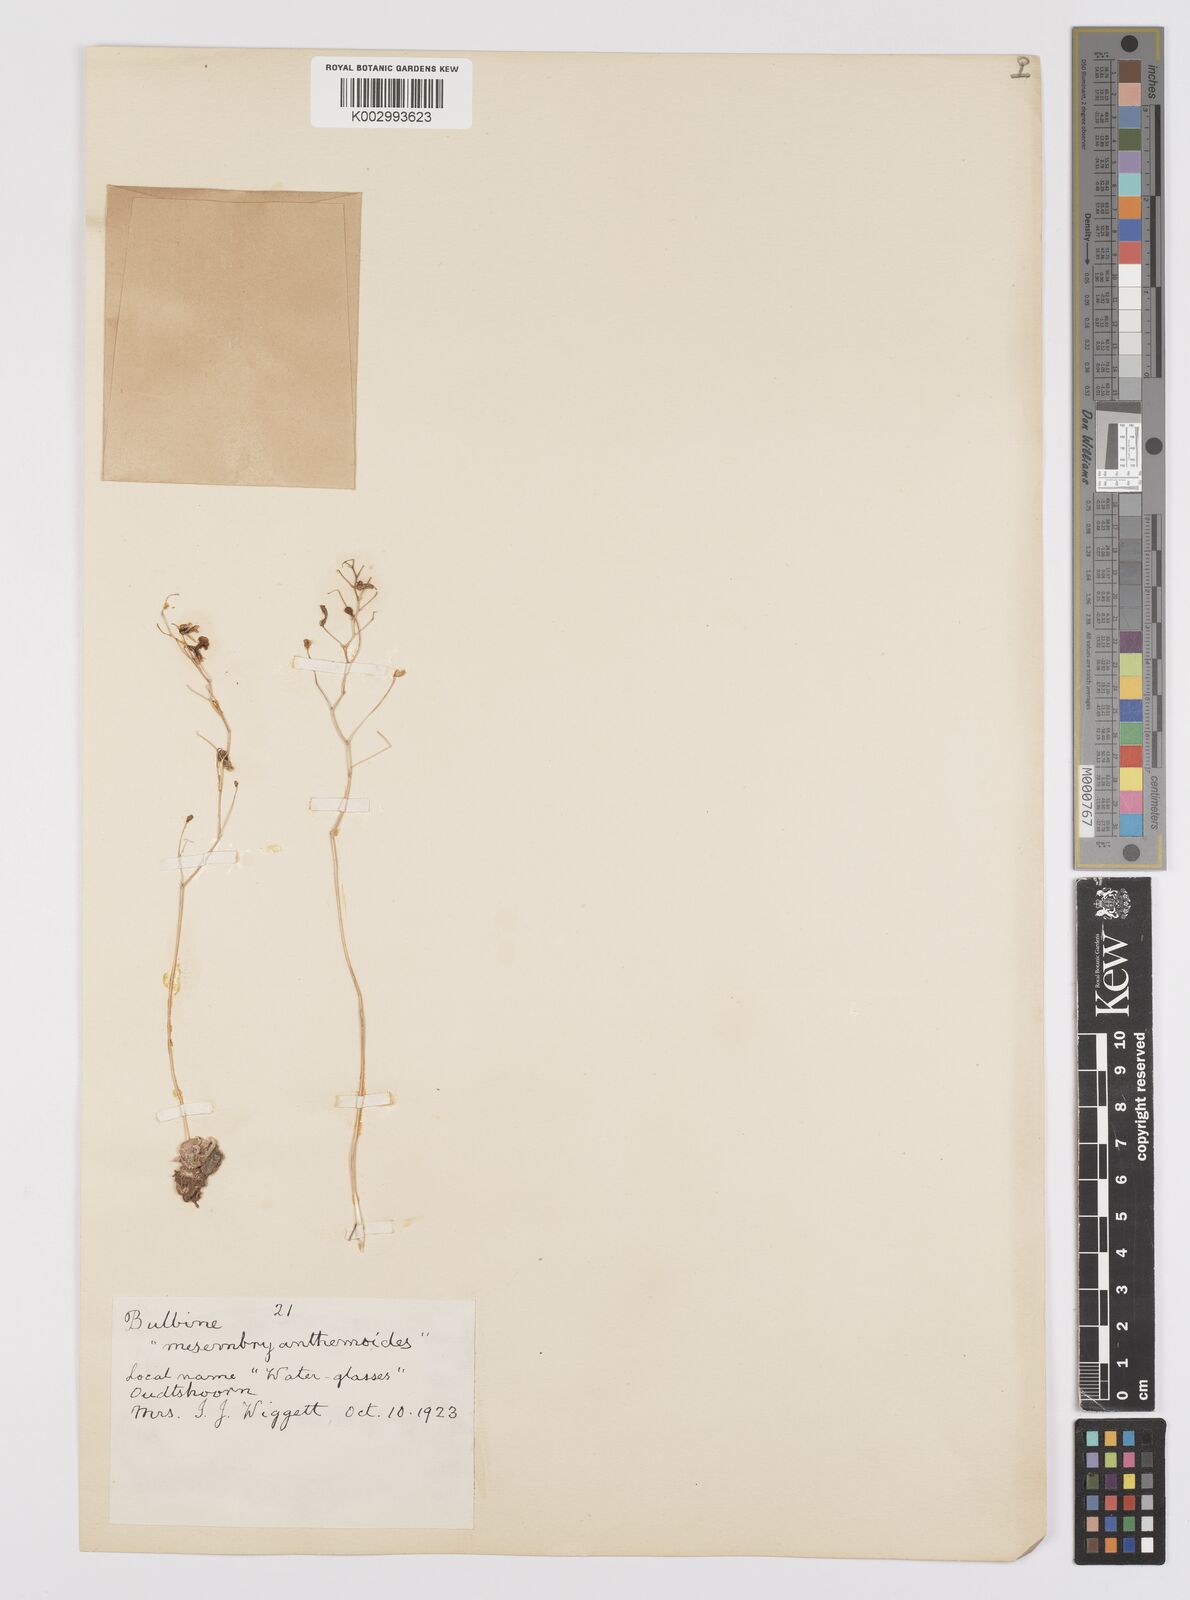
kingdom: Plantae
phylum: Tracheophyta
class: Liliopsida
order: Asparagales
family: Asphodelaceae
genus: Bulbine
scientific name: Bulbine mesembryanthemoides
